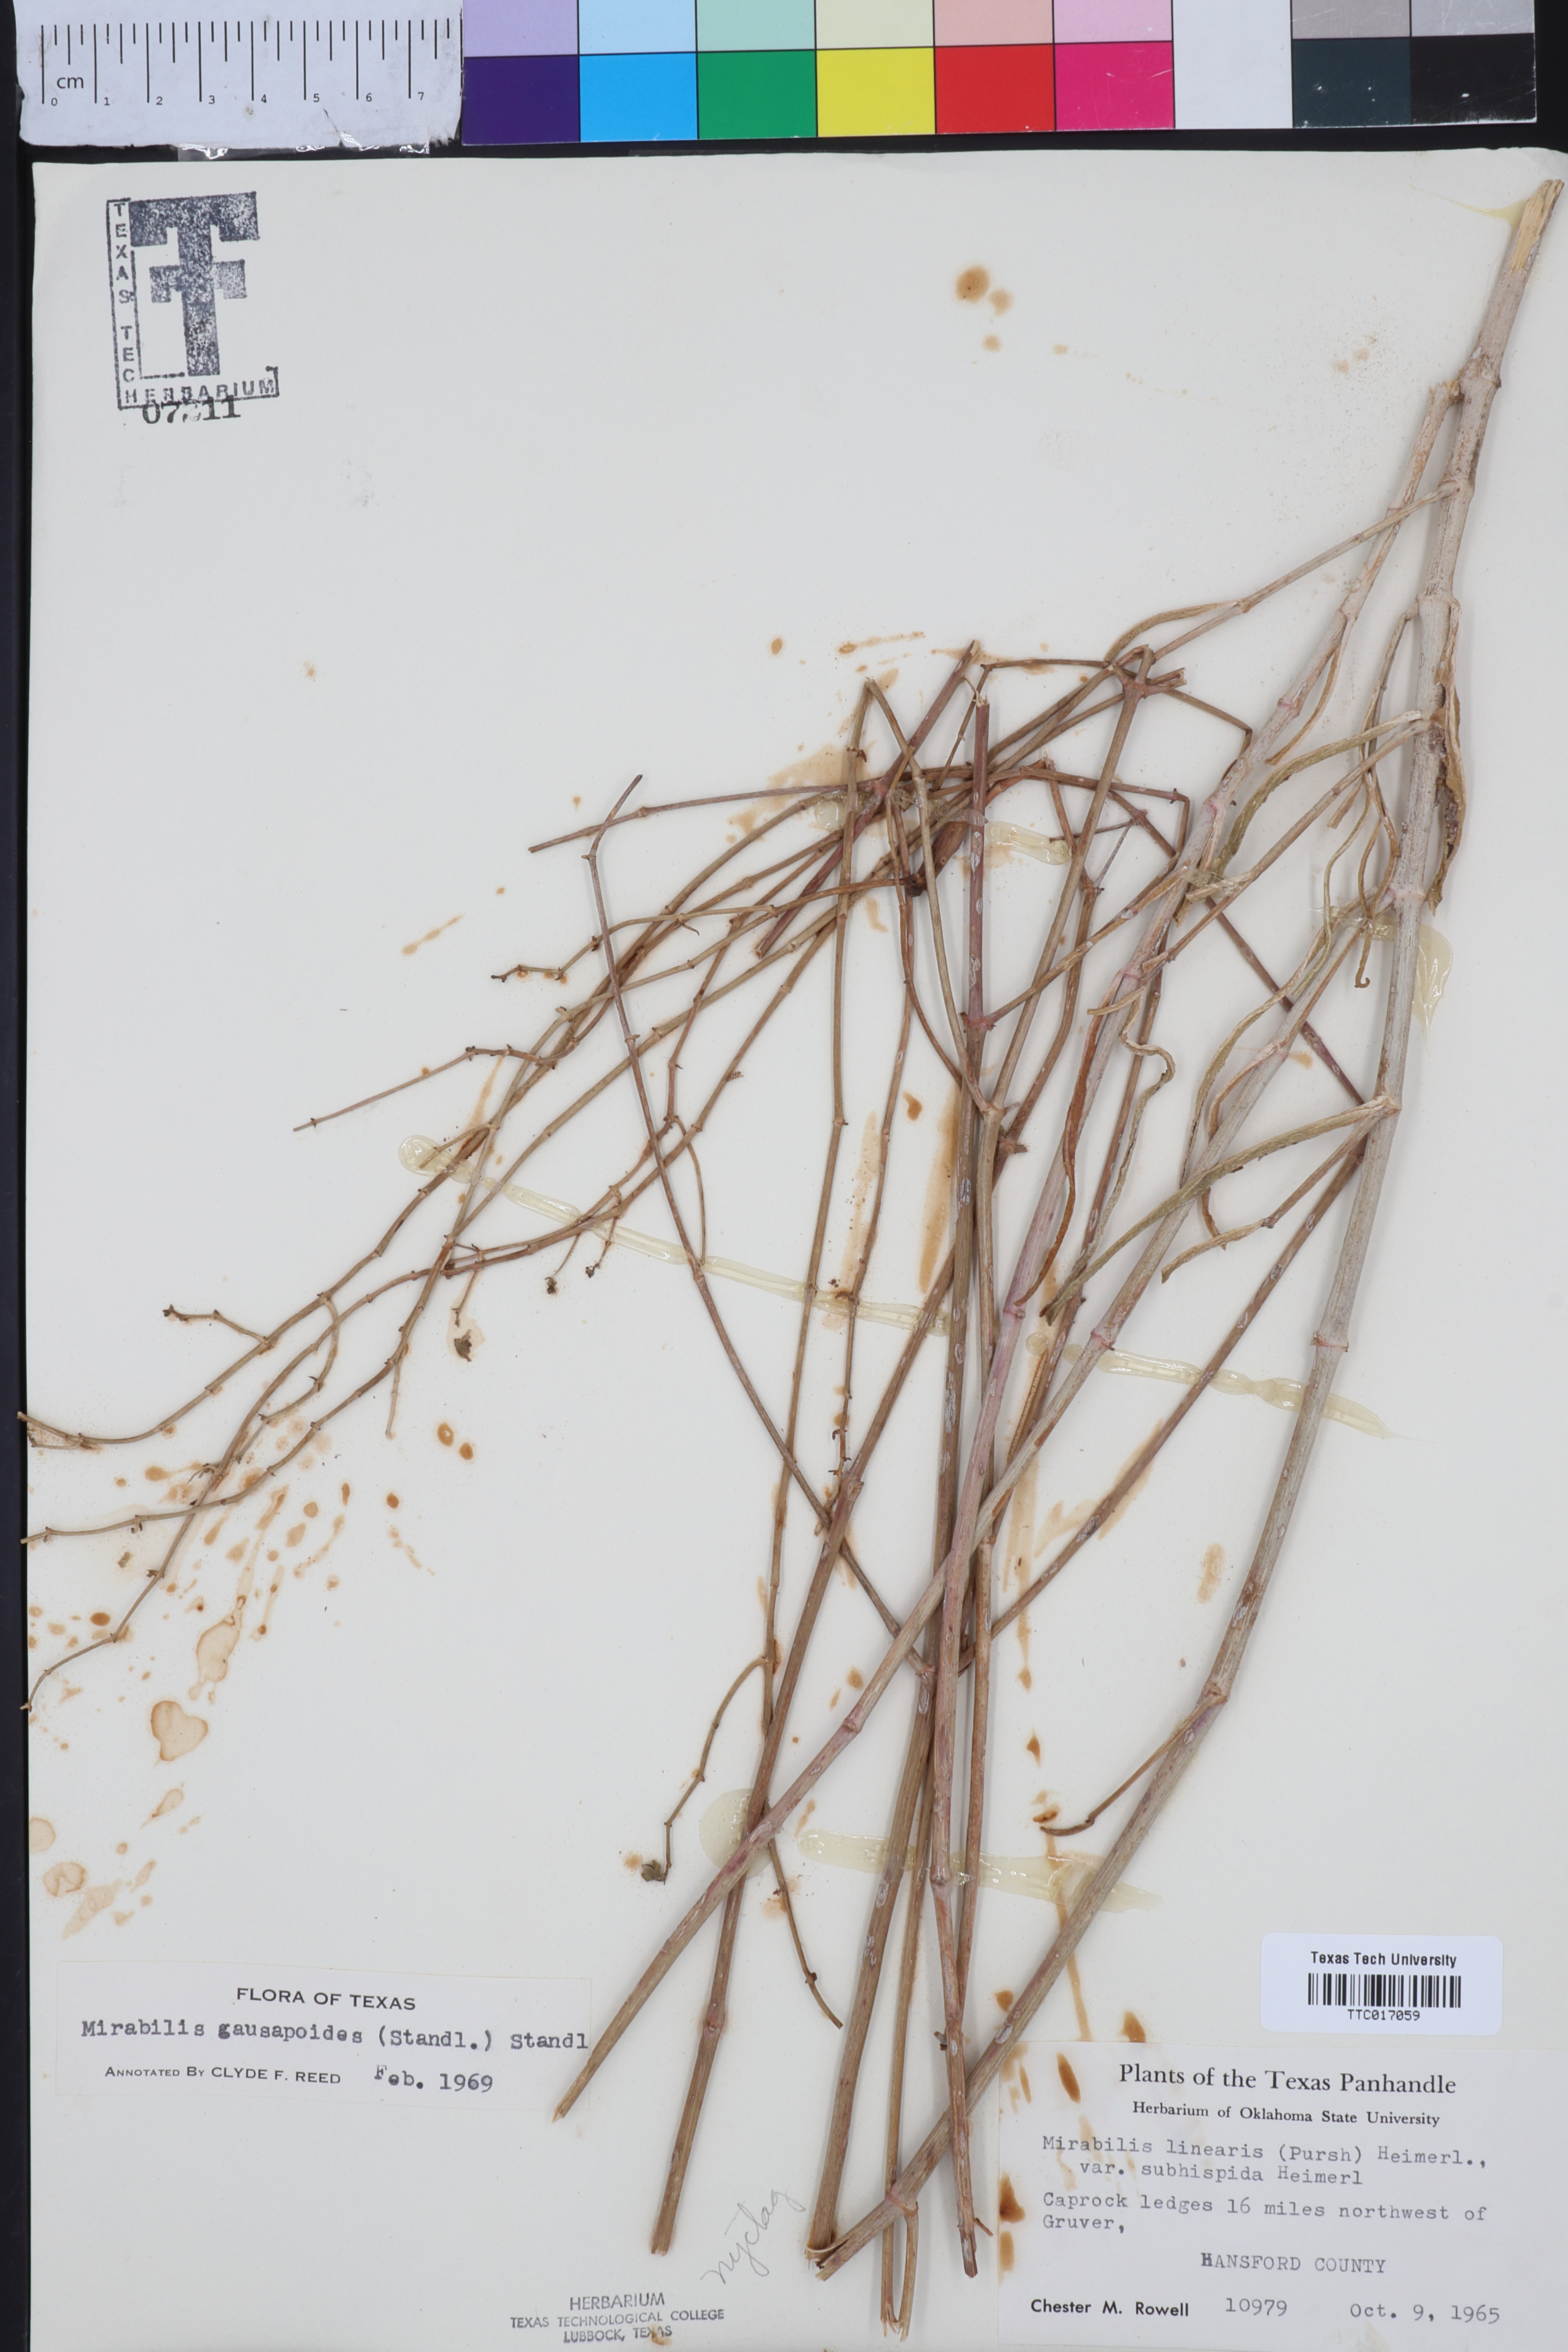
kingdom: Plantae
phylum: Tracheophyta
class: Magnoliopsida
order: Caryophyllales
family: Nyctaginaceae
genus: Mirabilis
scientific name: Mirabilis linearis
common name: Linear-leaved four-o'clock
